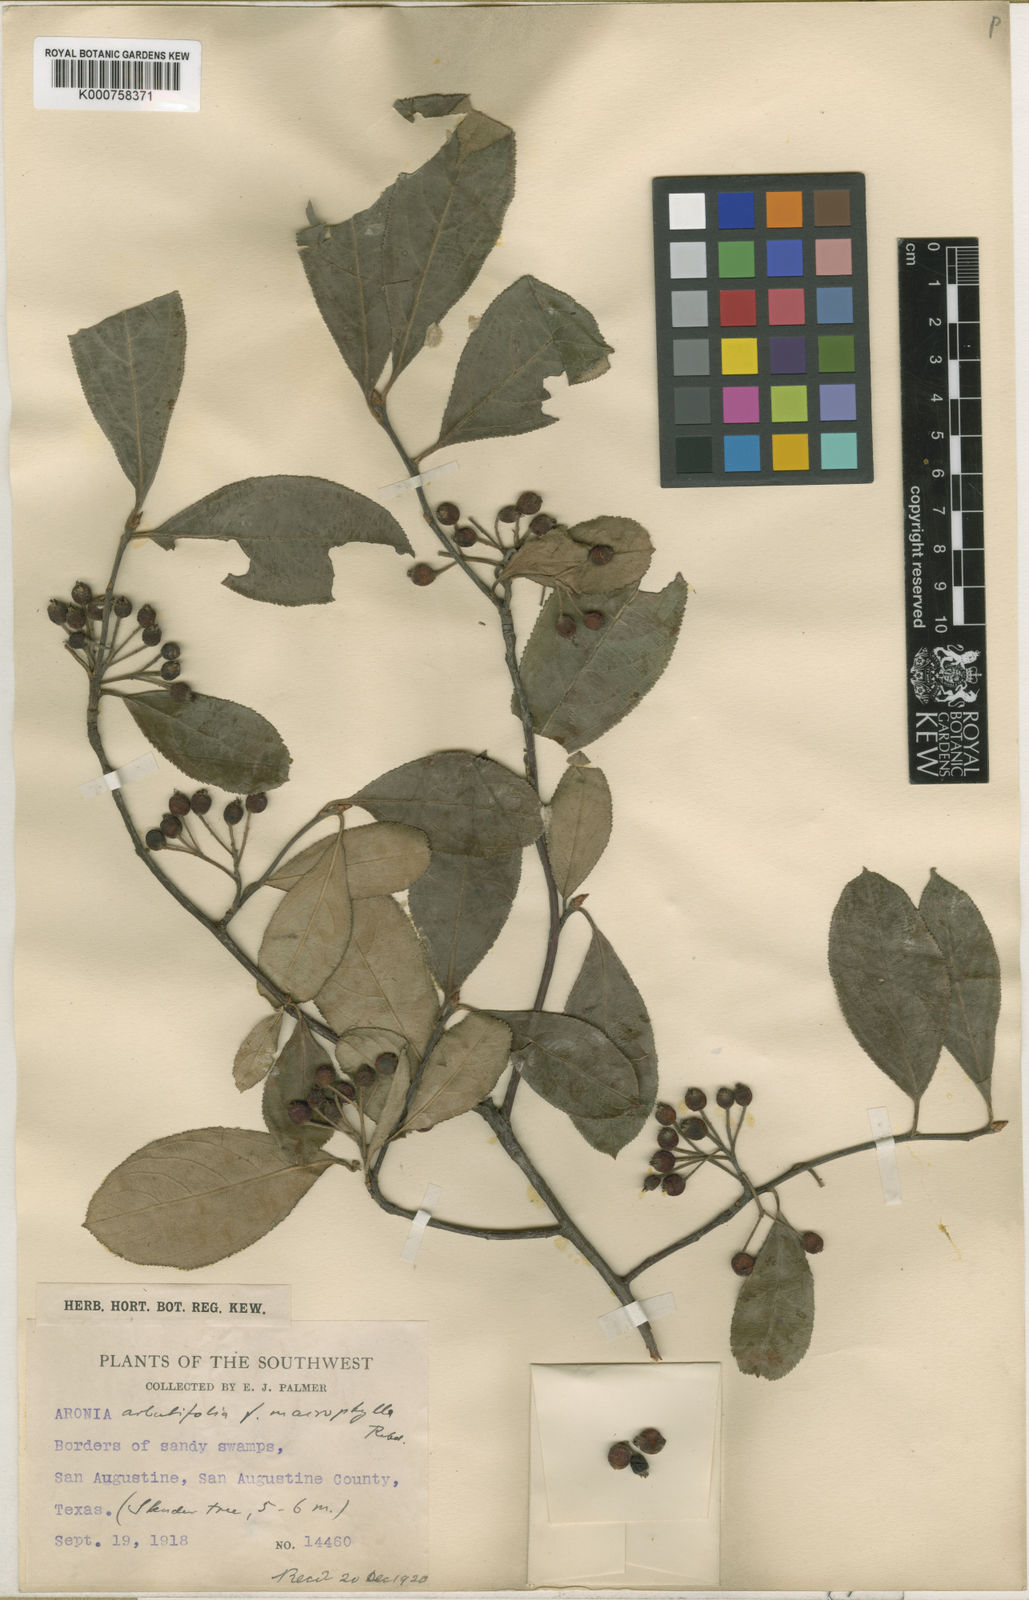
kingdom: Plantae
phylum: Tracheophyta
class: Magnoliopsida
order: Rosales
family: Rosaceae
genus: Heteromeles
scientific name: Heteromeles arbutifolia
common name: California-holly
